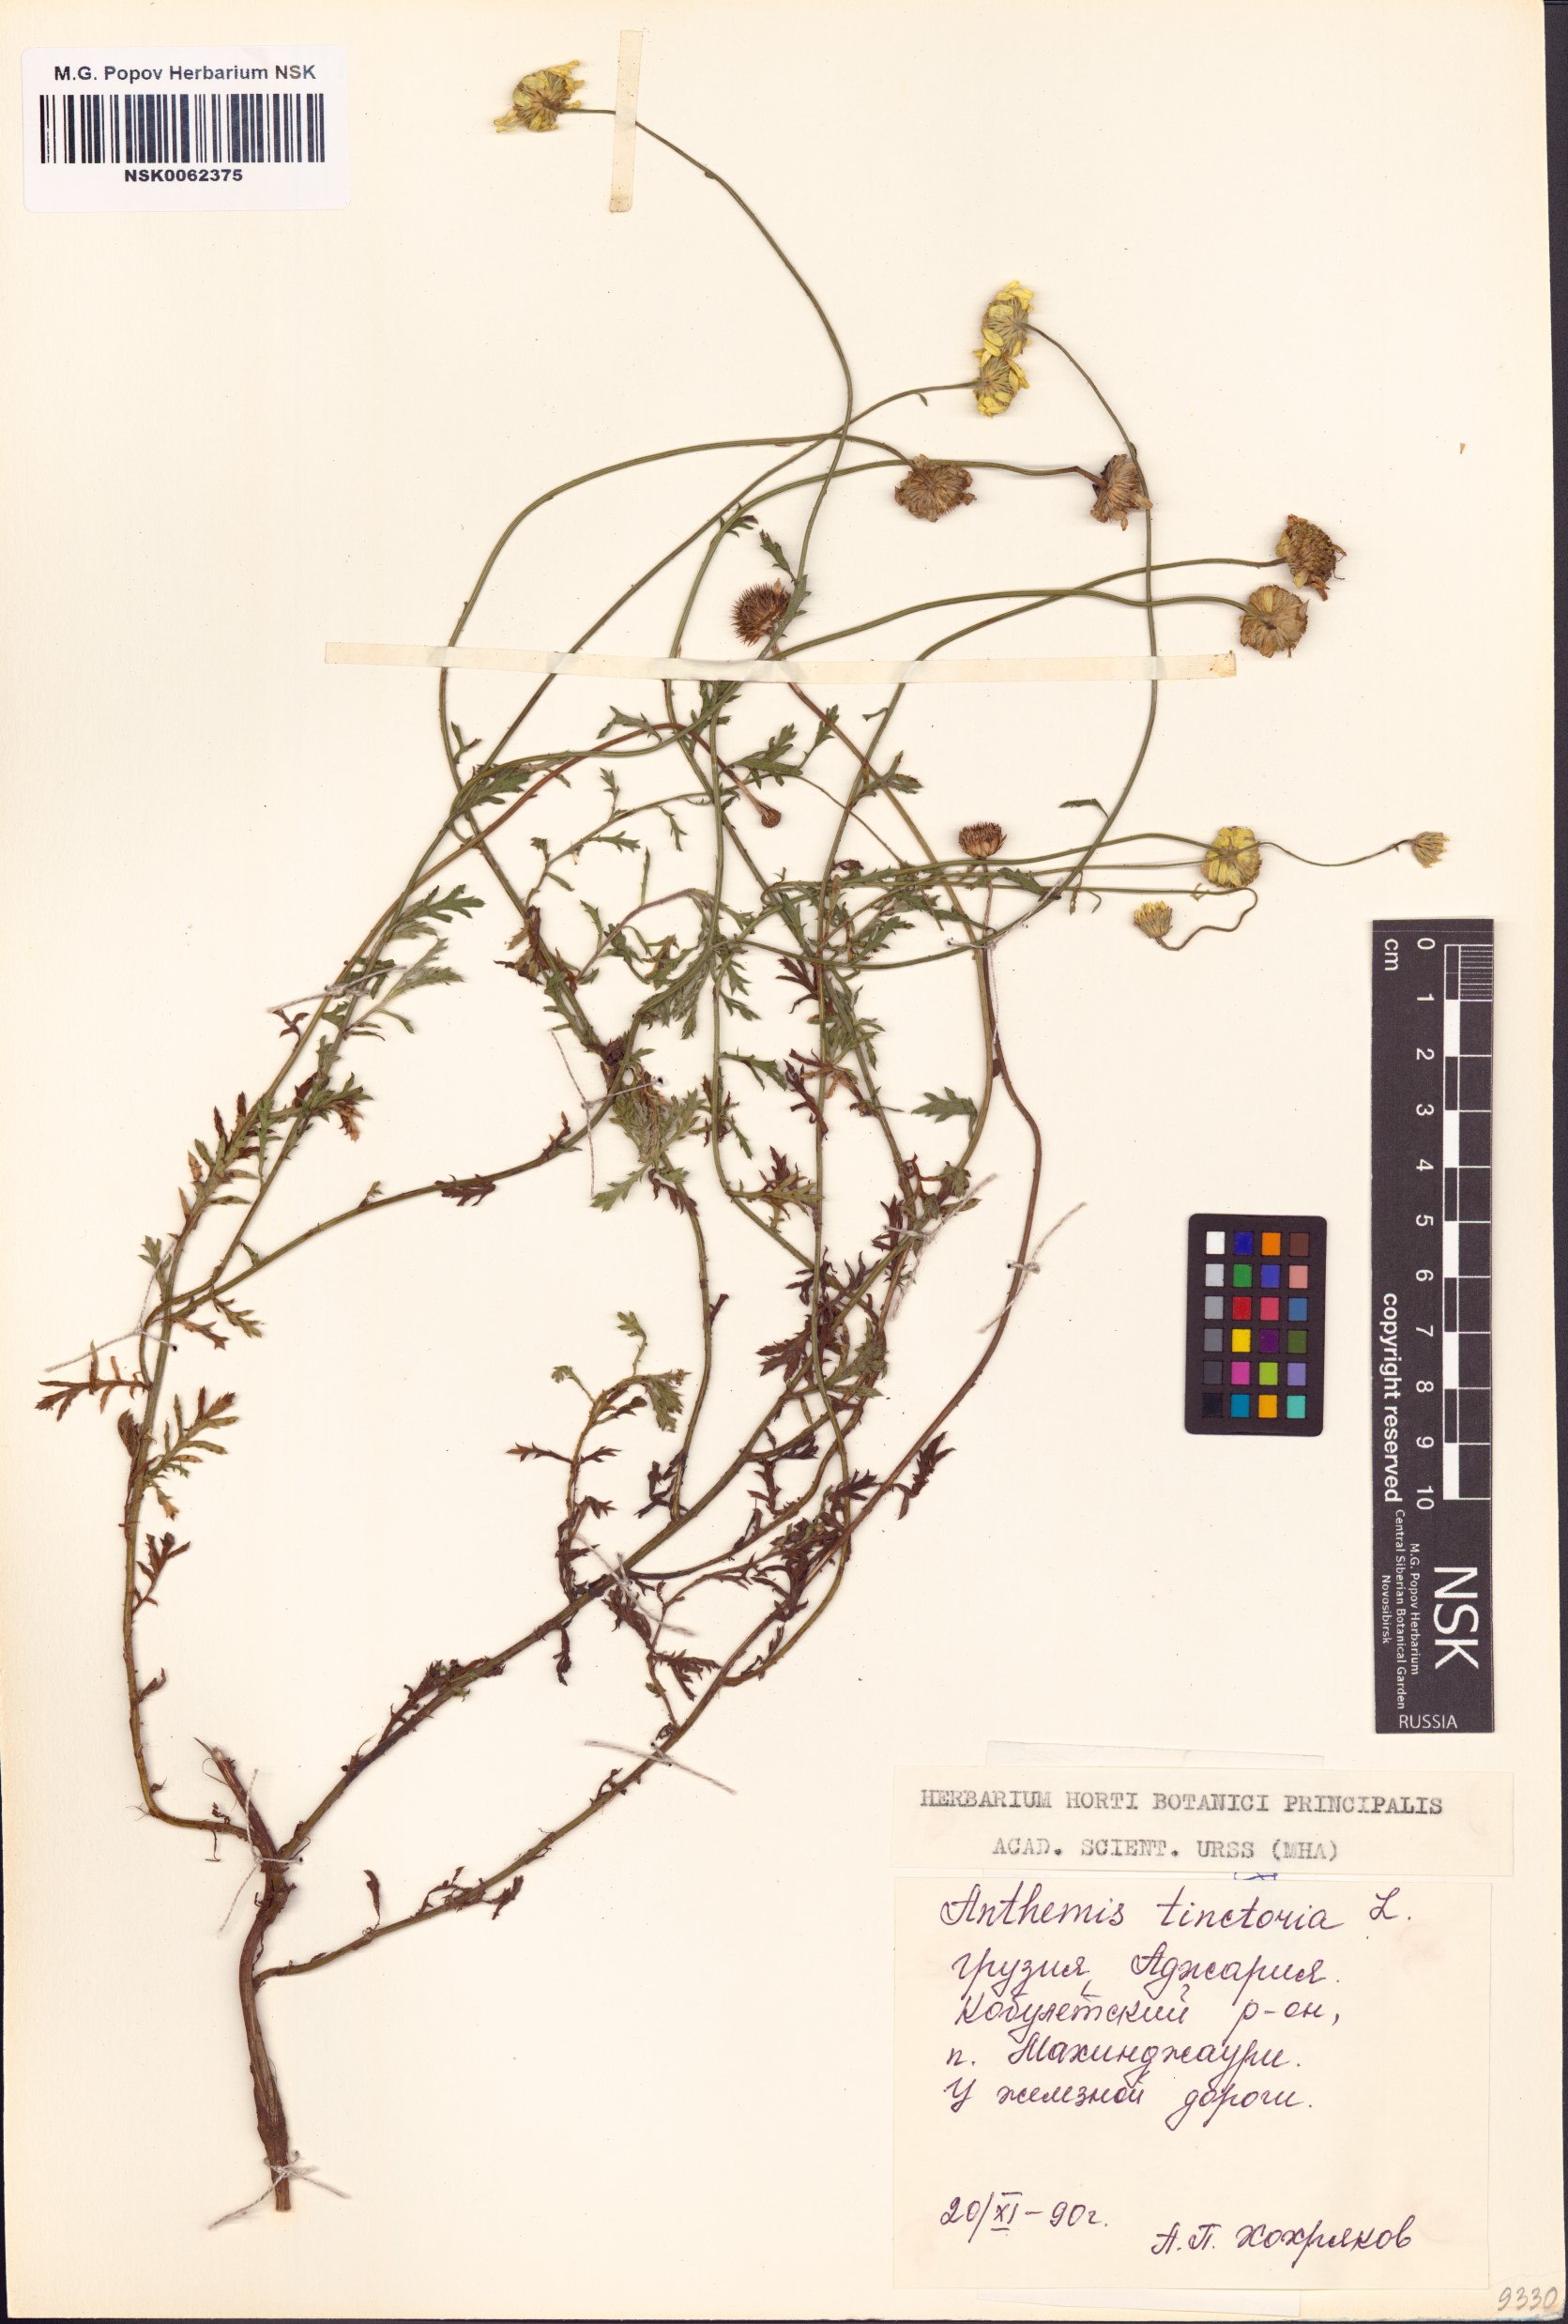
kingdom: Plantae
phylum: Tracheophyta
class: Magnoliopsida
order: Asterales
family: Asteraceae
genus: Cota
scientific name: Cota tinctoria
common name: Golden chamomile
